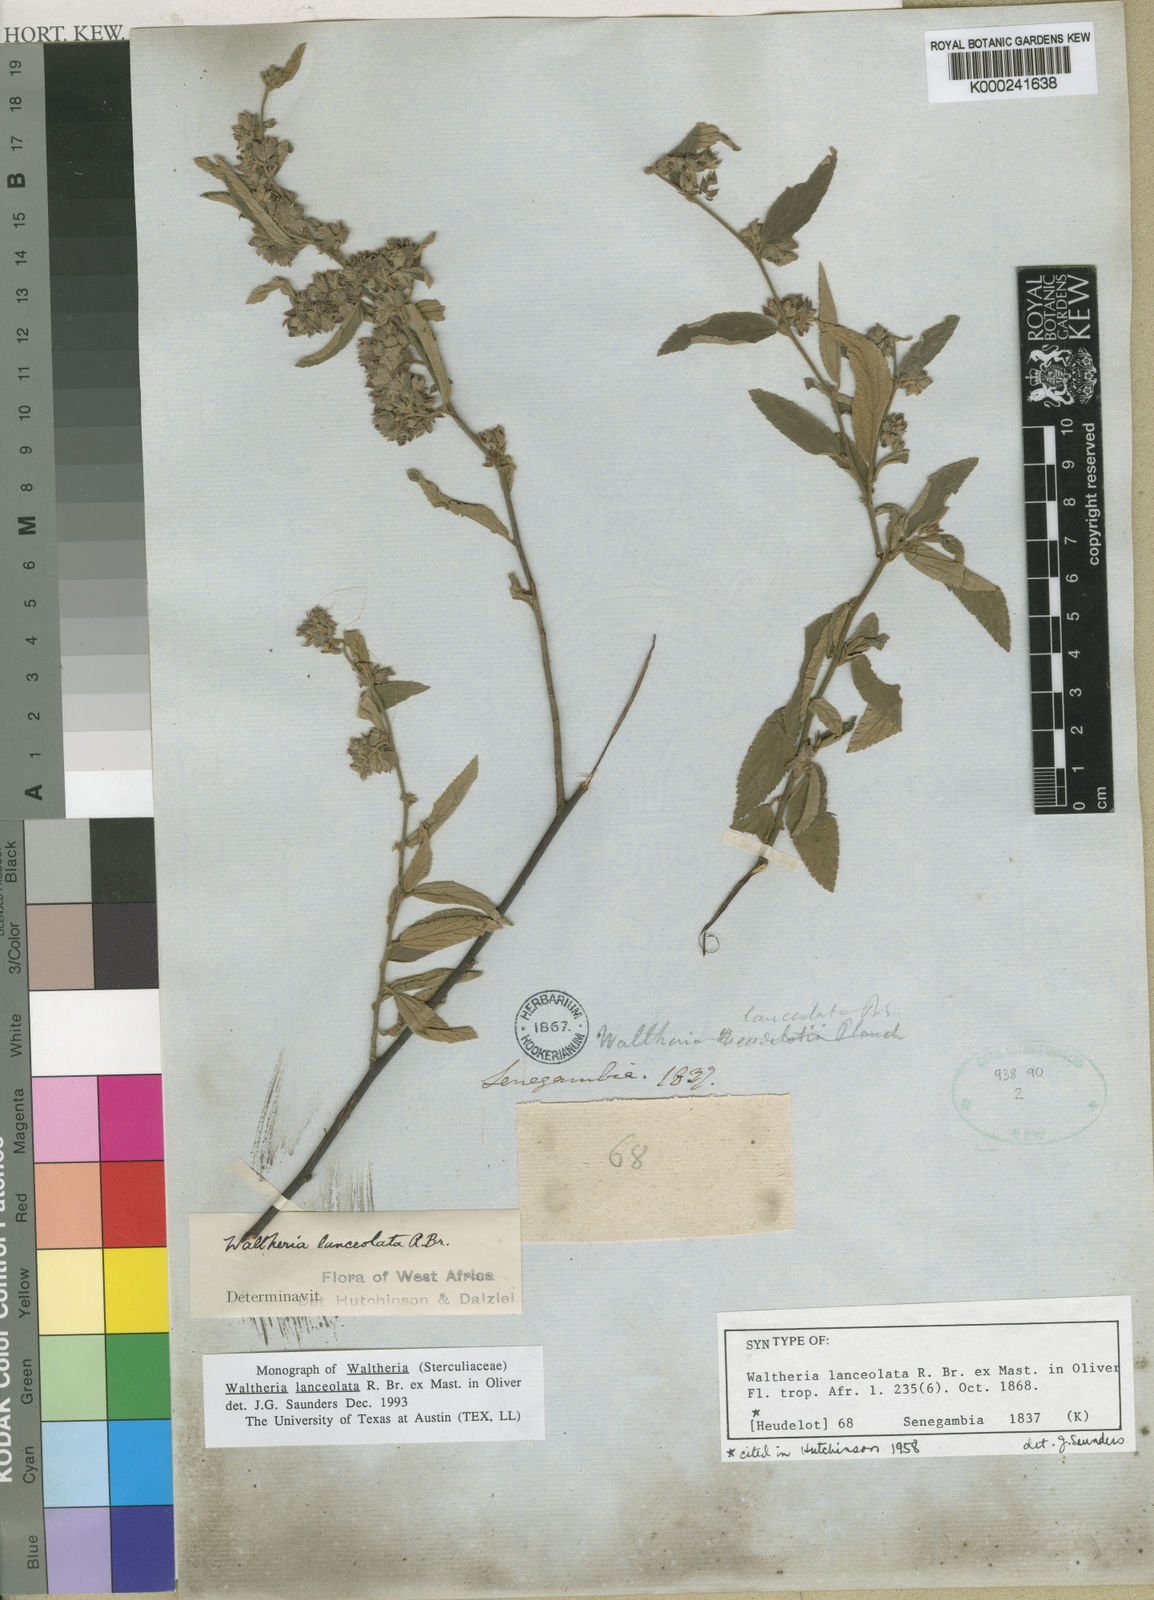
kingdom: Plantae
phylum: Tracheophyta
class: Magnoliopsida
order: Malvales
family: Malvaceae
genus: Waltheria
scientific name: Waltheria lanceolata
